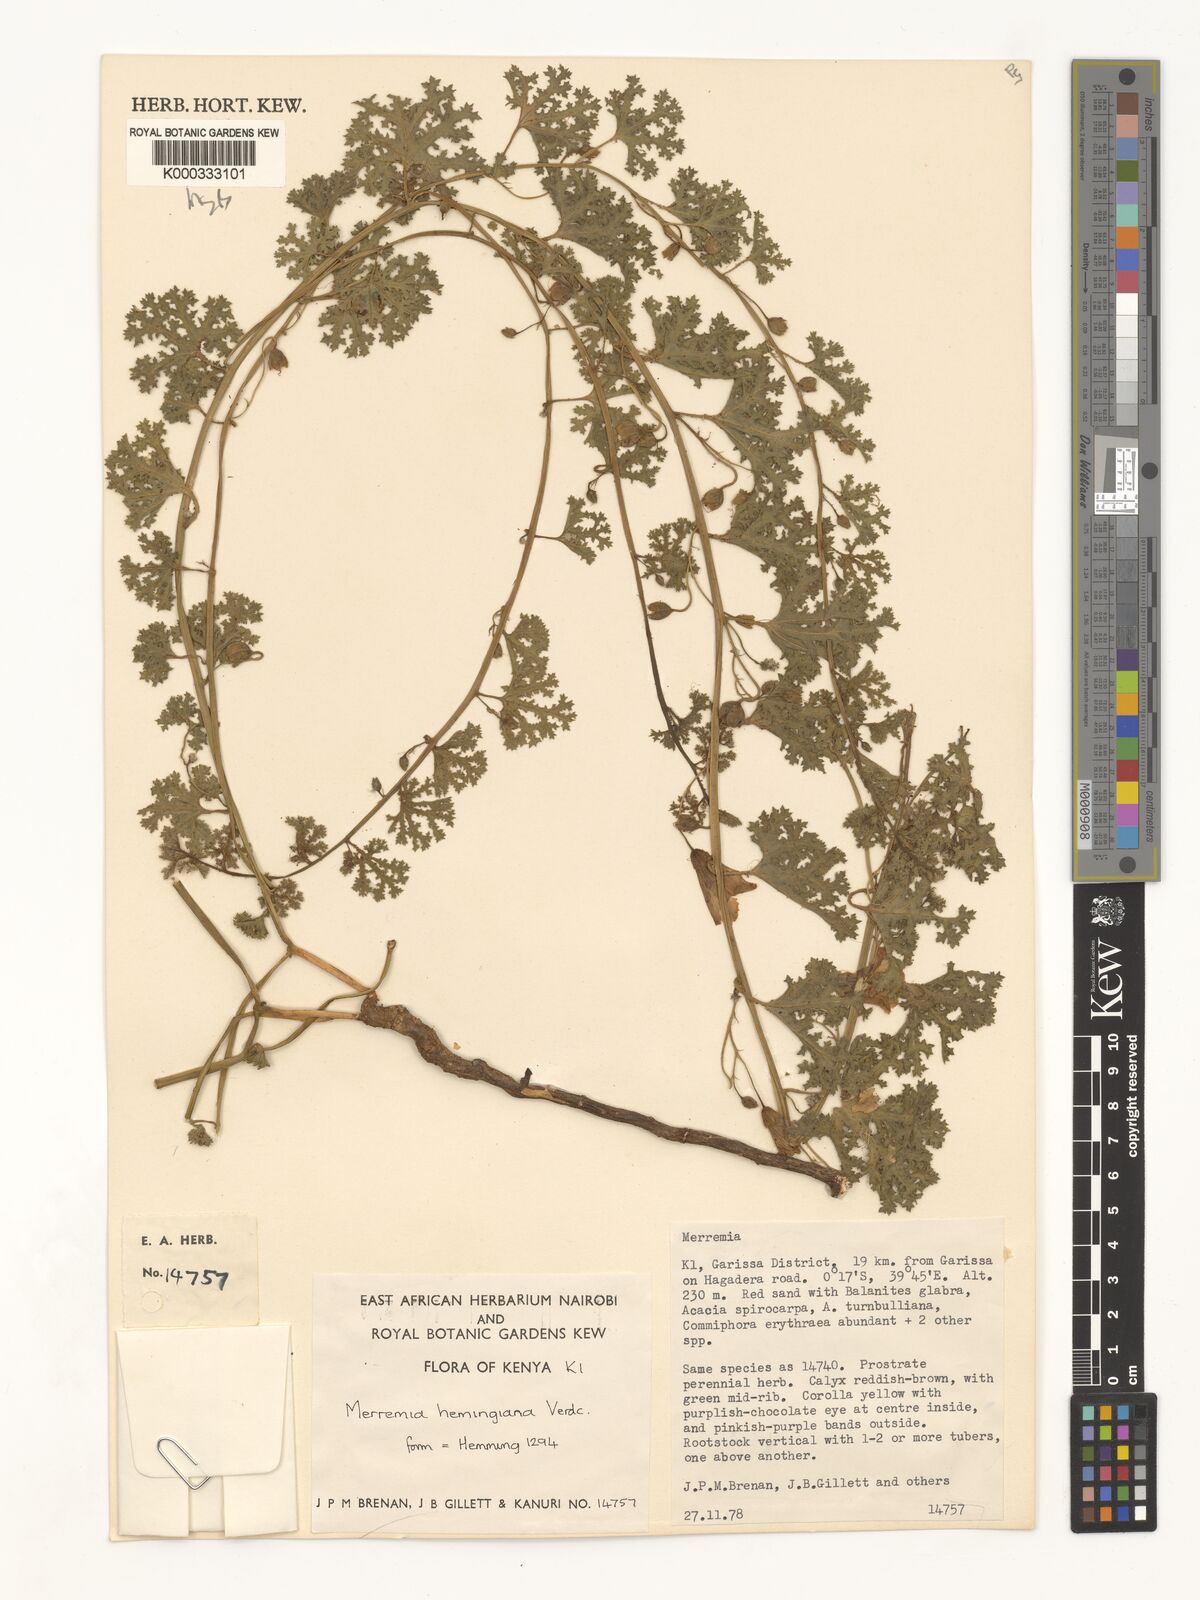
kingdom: Plantae
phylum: Tracheophyta
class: Magnoliopsida
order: Solanales
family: Convolvulaceae
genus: Merremia
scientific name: Merremia hemmingiana
